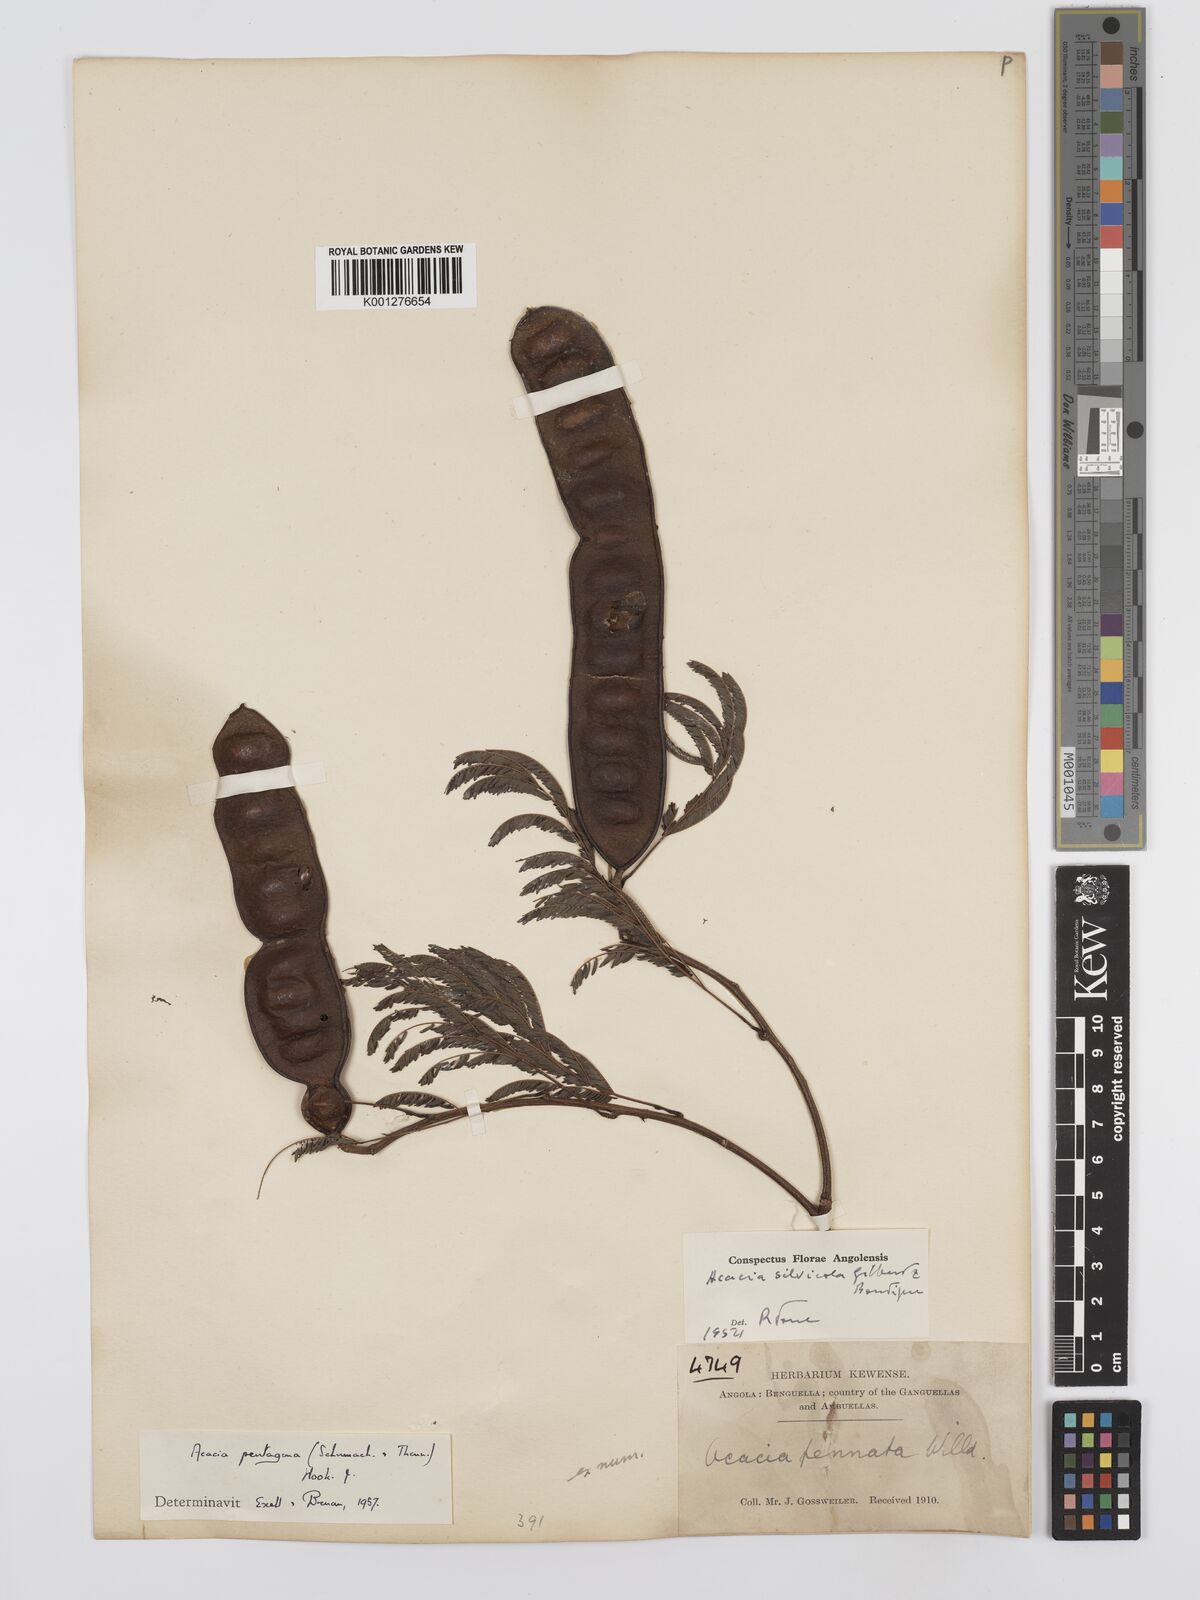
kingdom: Plantae
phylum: Tracheophyta
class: Magnoliopsida
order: Fabales
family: Fabaceae
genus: Senegalia
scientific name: Senegalia pentagona
